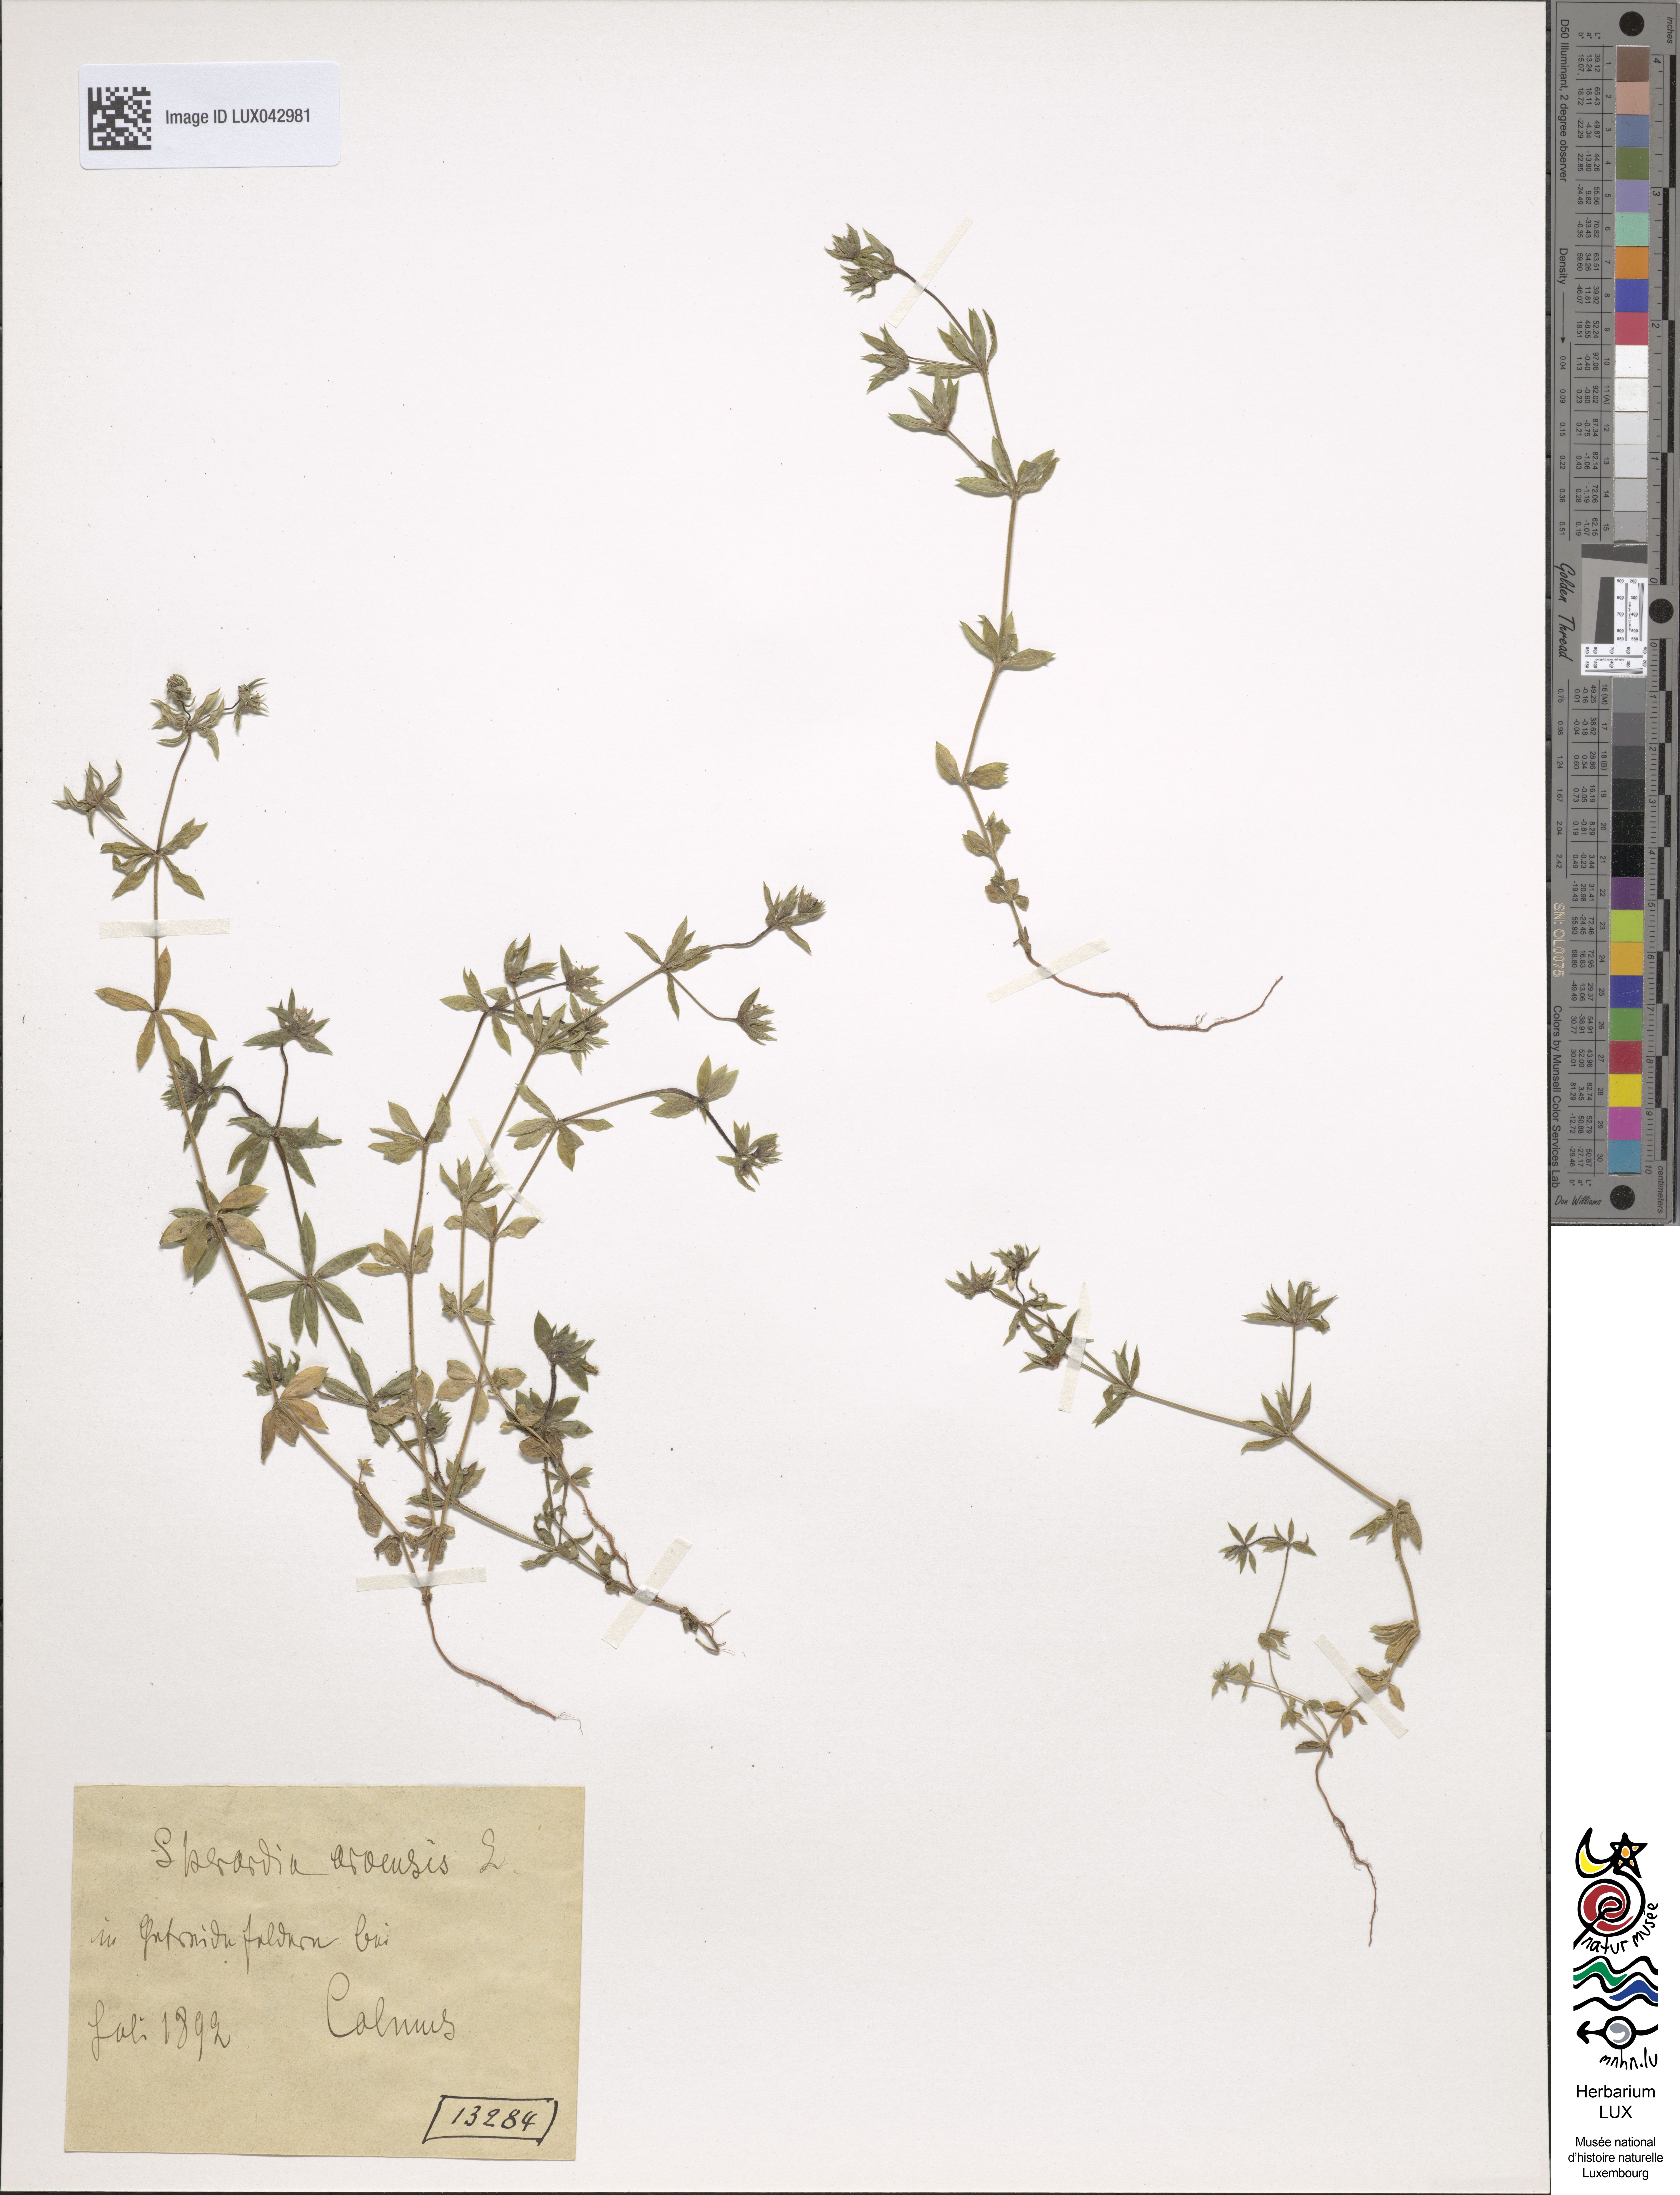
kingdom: Plantae
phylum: Tracheophyta
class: Magnoliopsida
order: Gentianales
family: Rubiaceae
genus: Sherardia
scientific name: Sherardia arvensis
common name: Field madder
